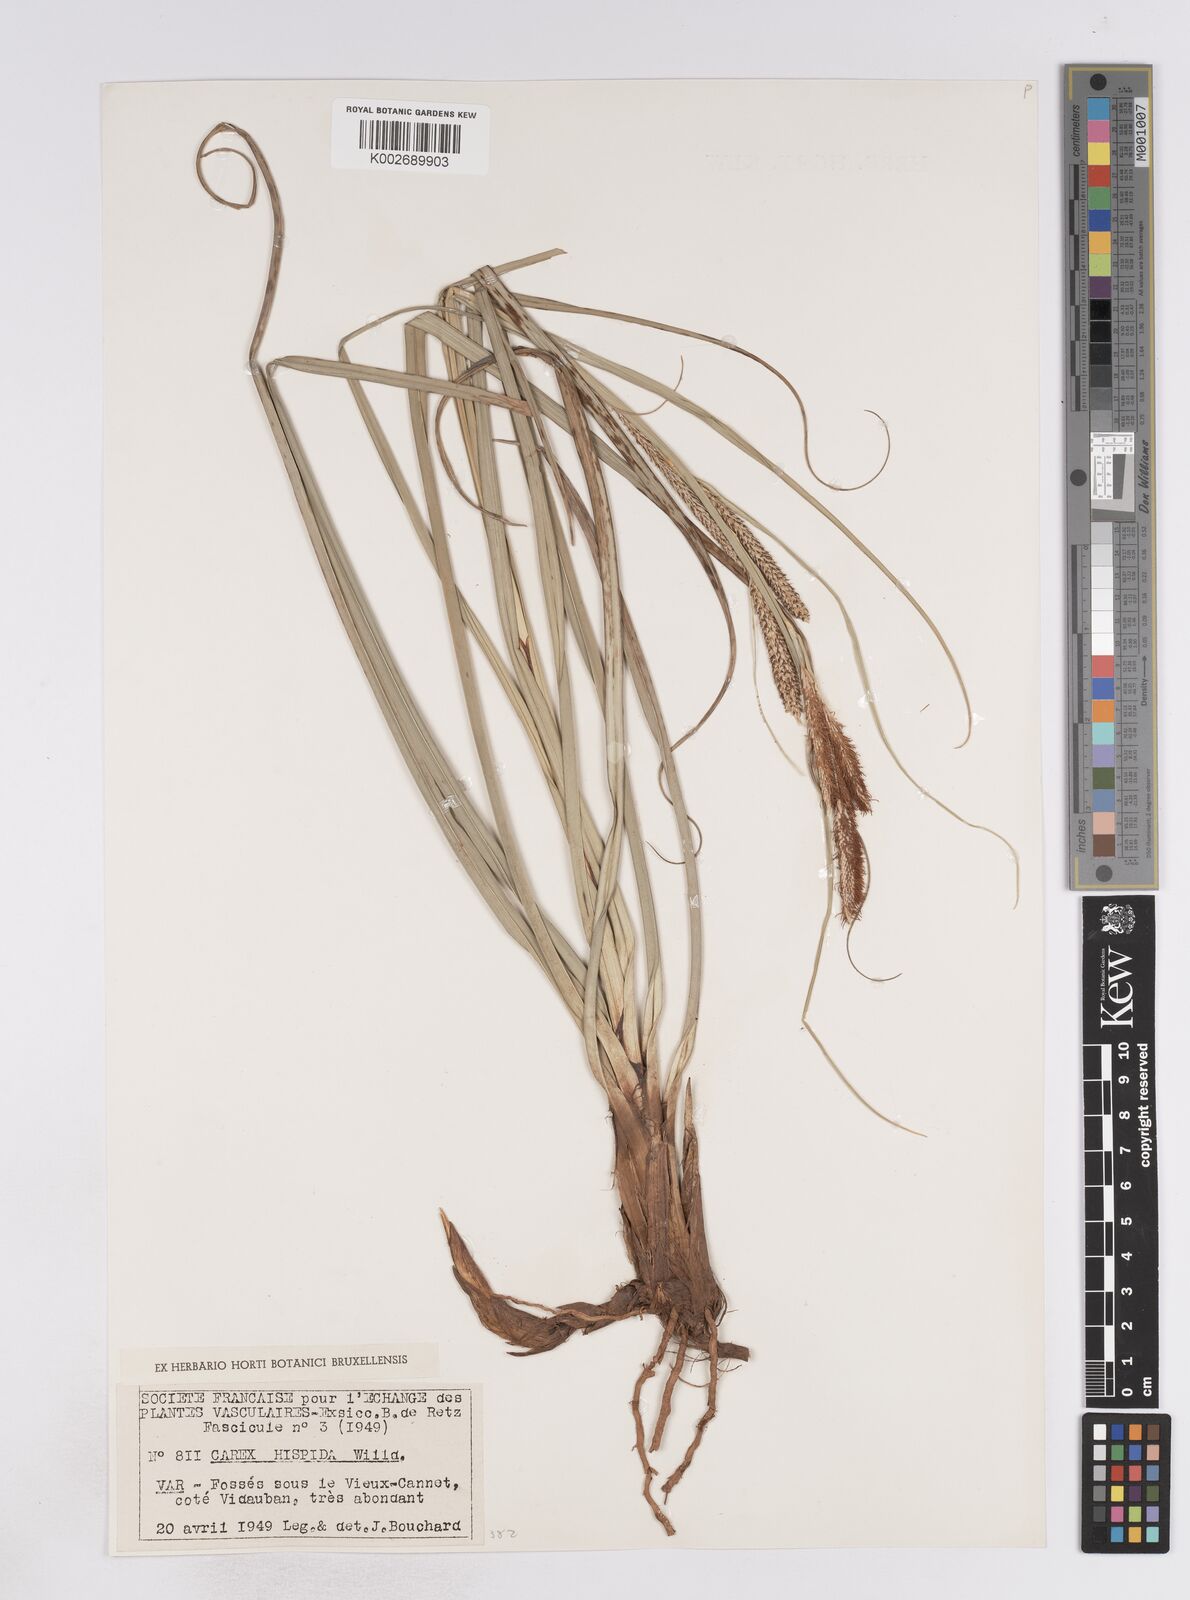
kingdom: Plantae
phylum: Tracheophyta
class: Liliopsida
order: Poales
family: Cyperaceae
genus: Carex
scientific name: Carex hispida
